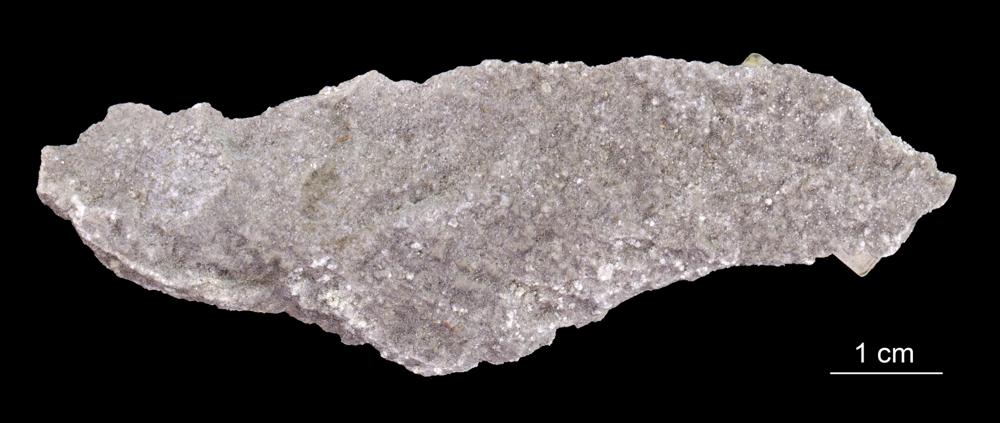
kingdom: Animalia
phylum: Annelida
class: Polychaeta
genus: Volborthella
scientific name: Volborthella tenuis
